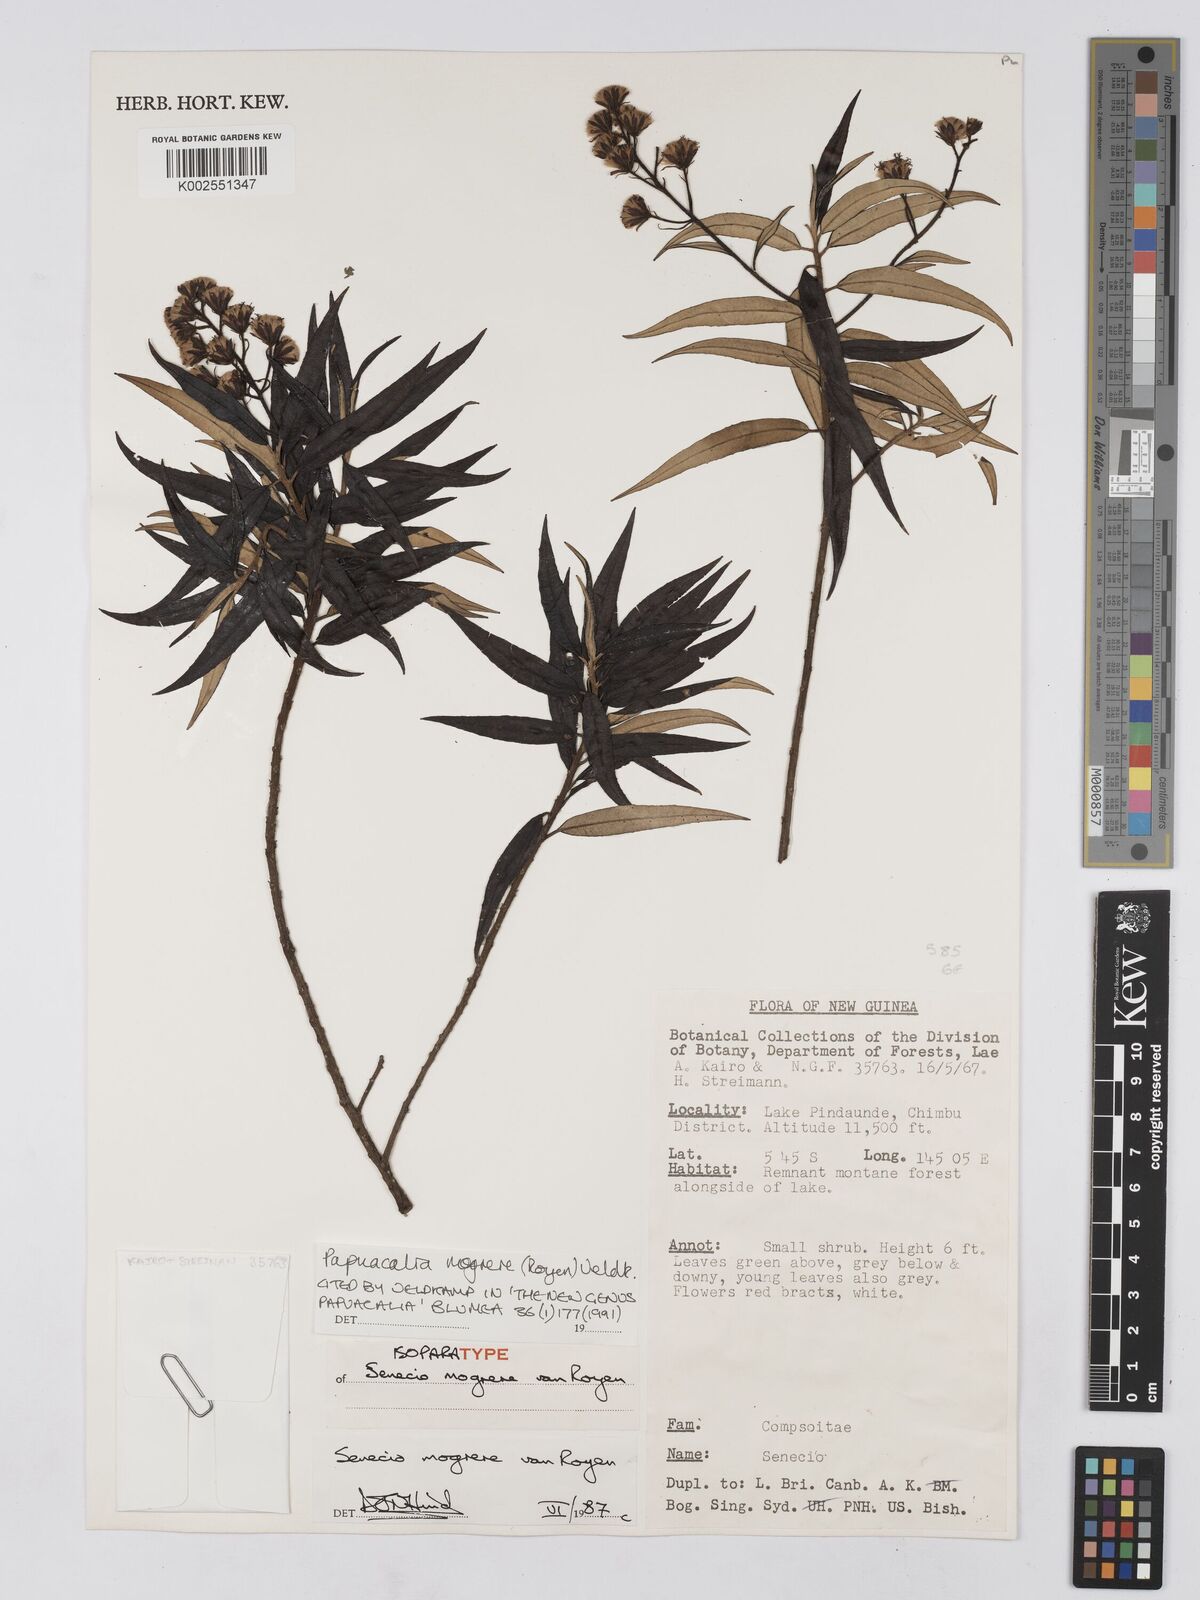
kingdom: Plantae
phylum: Tracheophyta
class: Magnoliopsida
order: Asterales
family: Asteraceae
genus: Papuacalia
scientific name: Papuacalia mogrere
